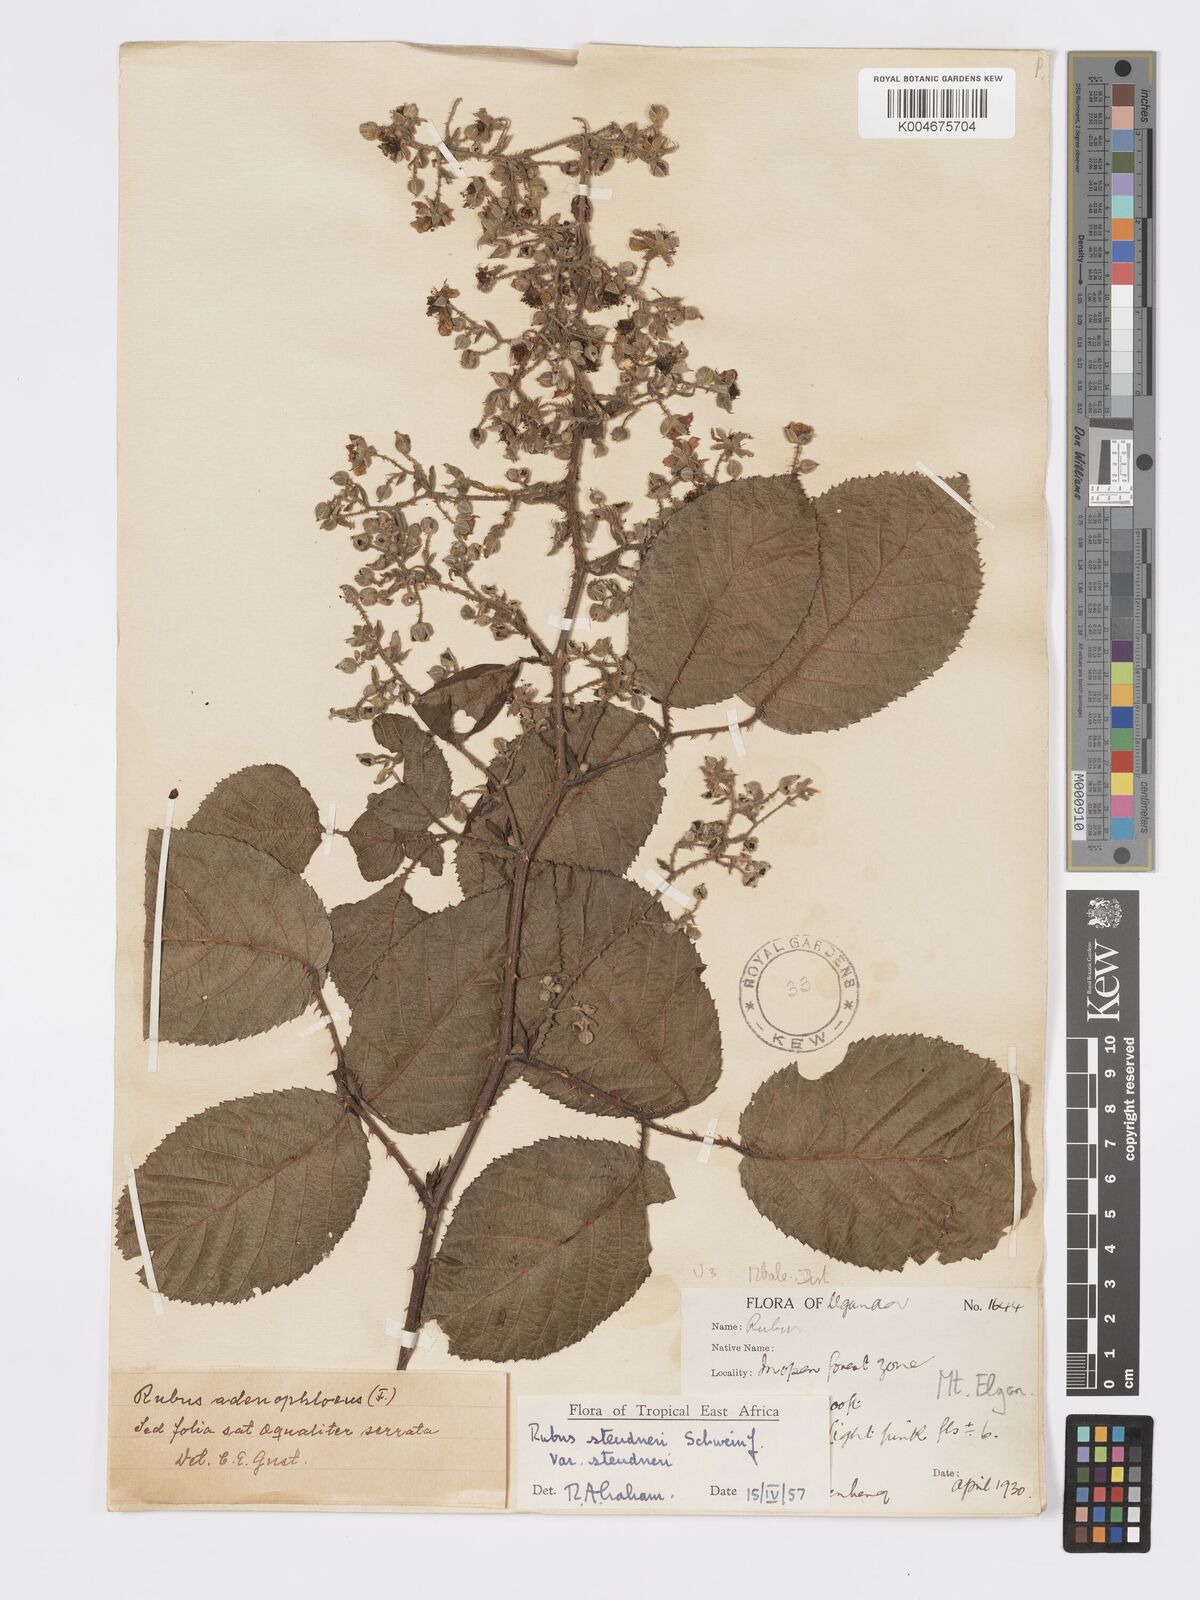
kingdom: Plantae
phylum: Tracheophyta
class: Magnoliopsida
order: Rosales
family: Rosaceae
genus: Rubus
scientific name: Rubus steudneri
